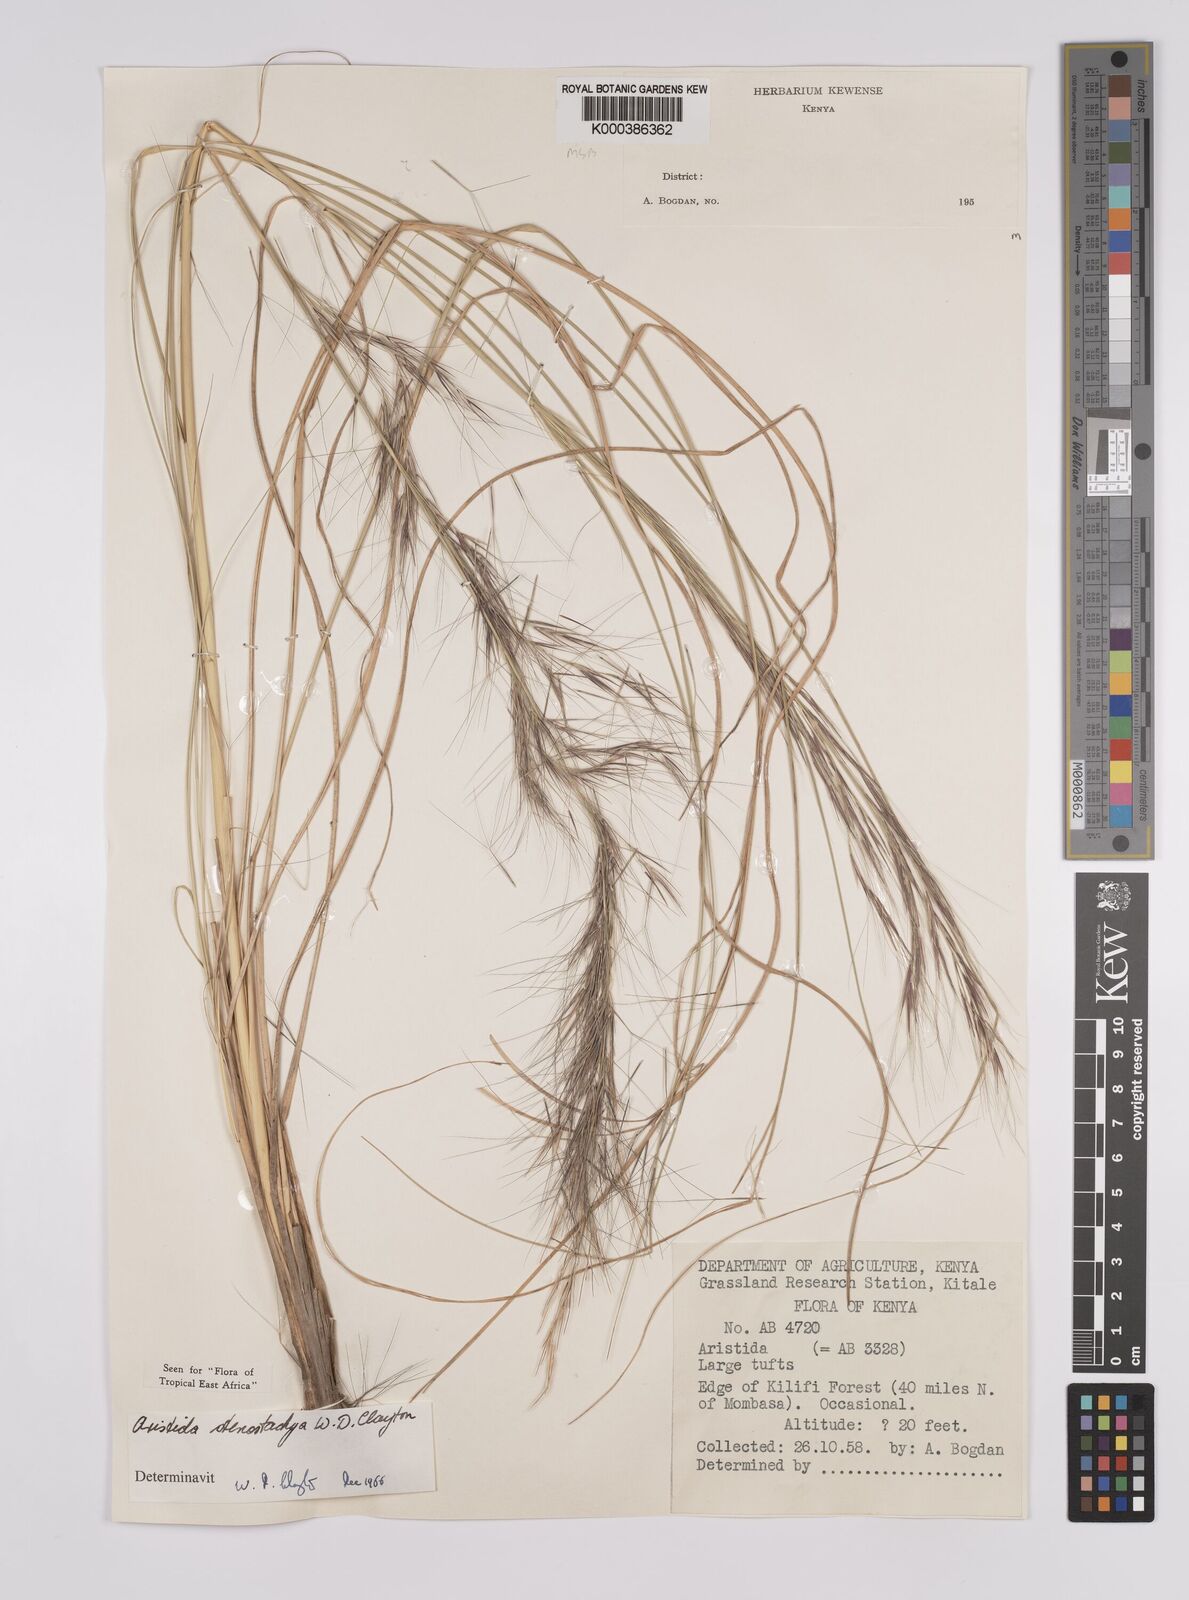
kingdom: Plantae
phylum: Tracheophyta
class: Liliopsida
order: Poales
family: Poaceae
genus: Aristida
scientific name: Aristida stenostachya
